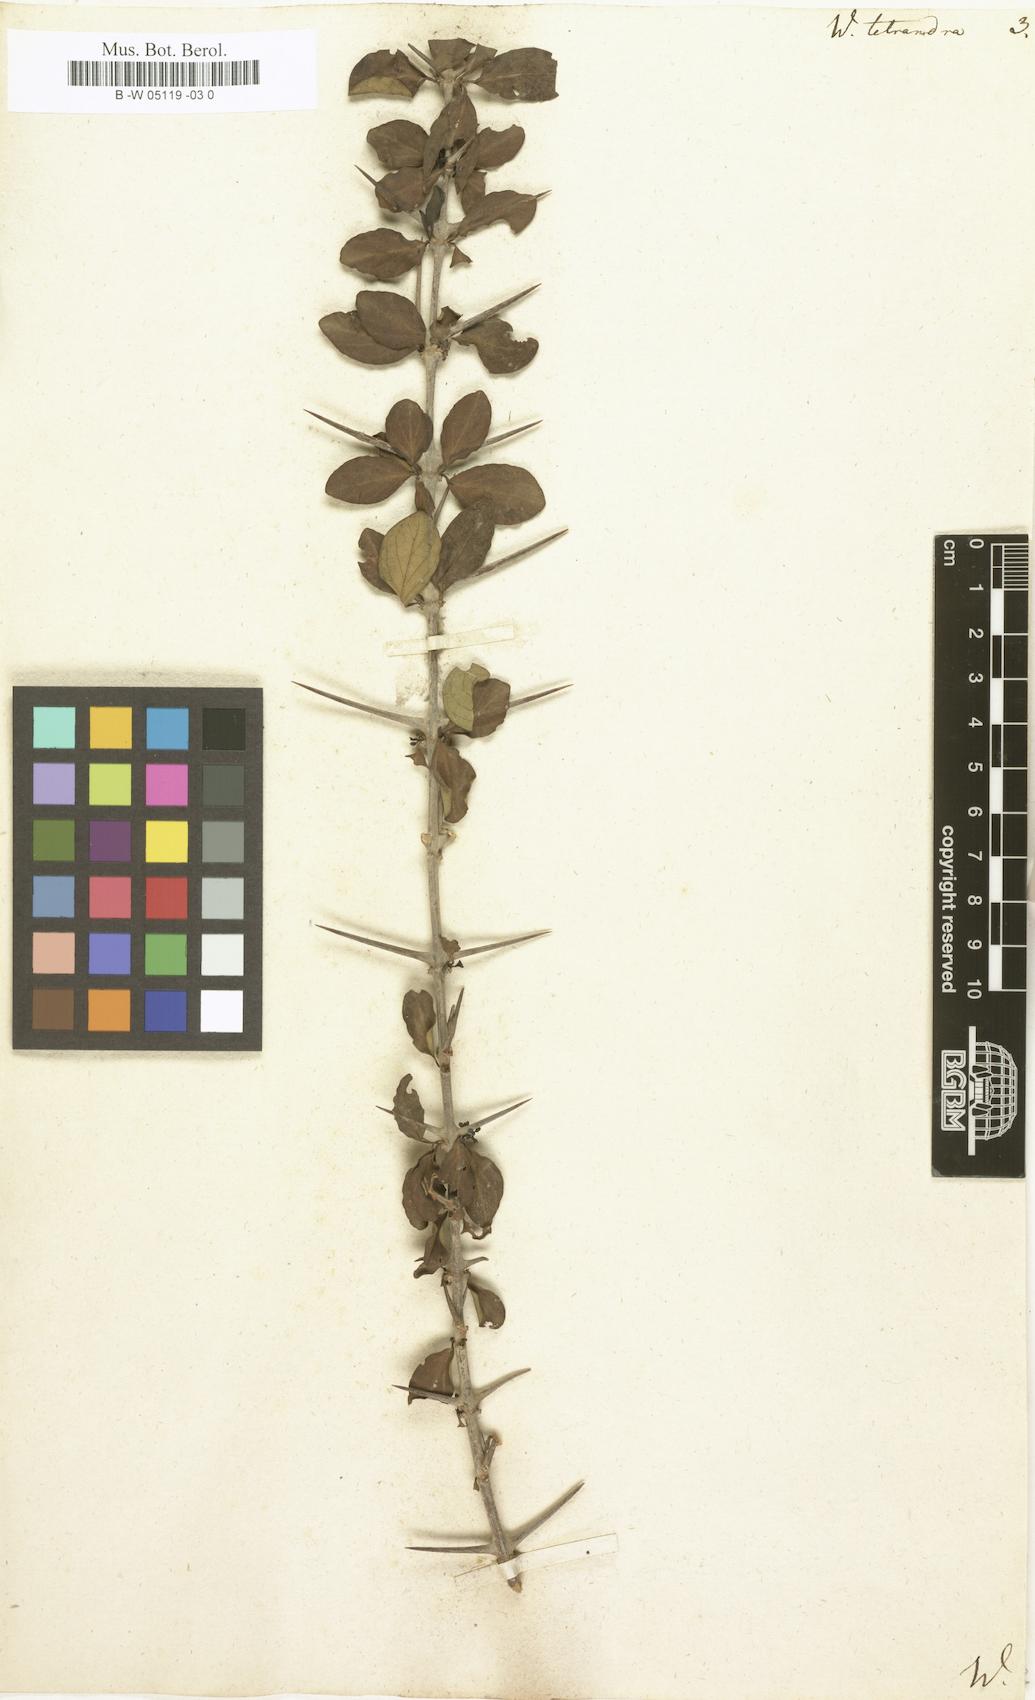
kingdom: Plantae
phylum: Tracheophyta
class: Magnoliopsida
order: Gentianales
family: Rubiaceae
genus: Canthium
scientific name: Canthium coromandelicum
